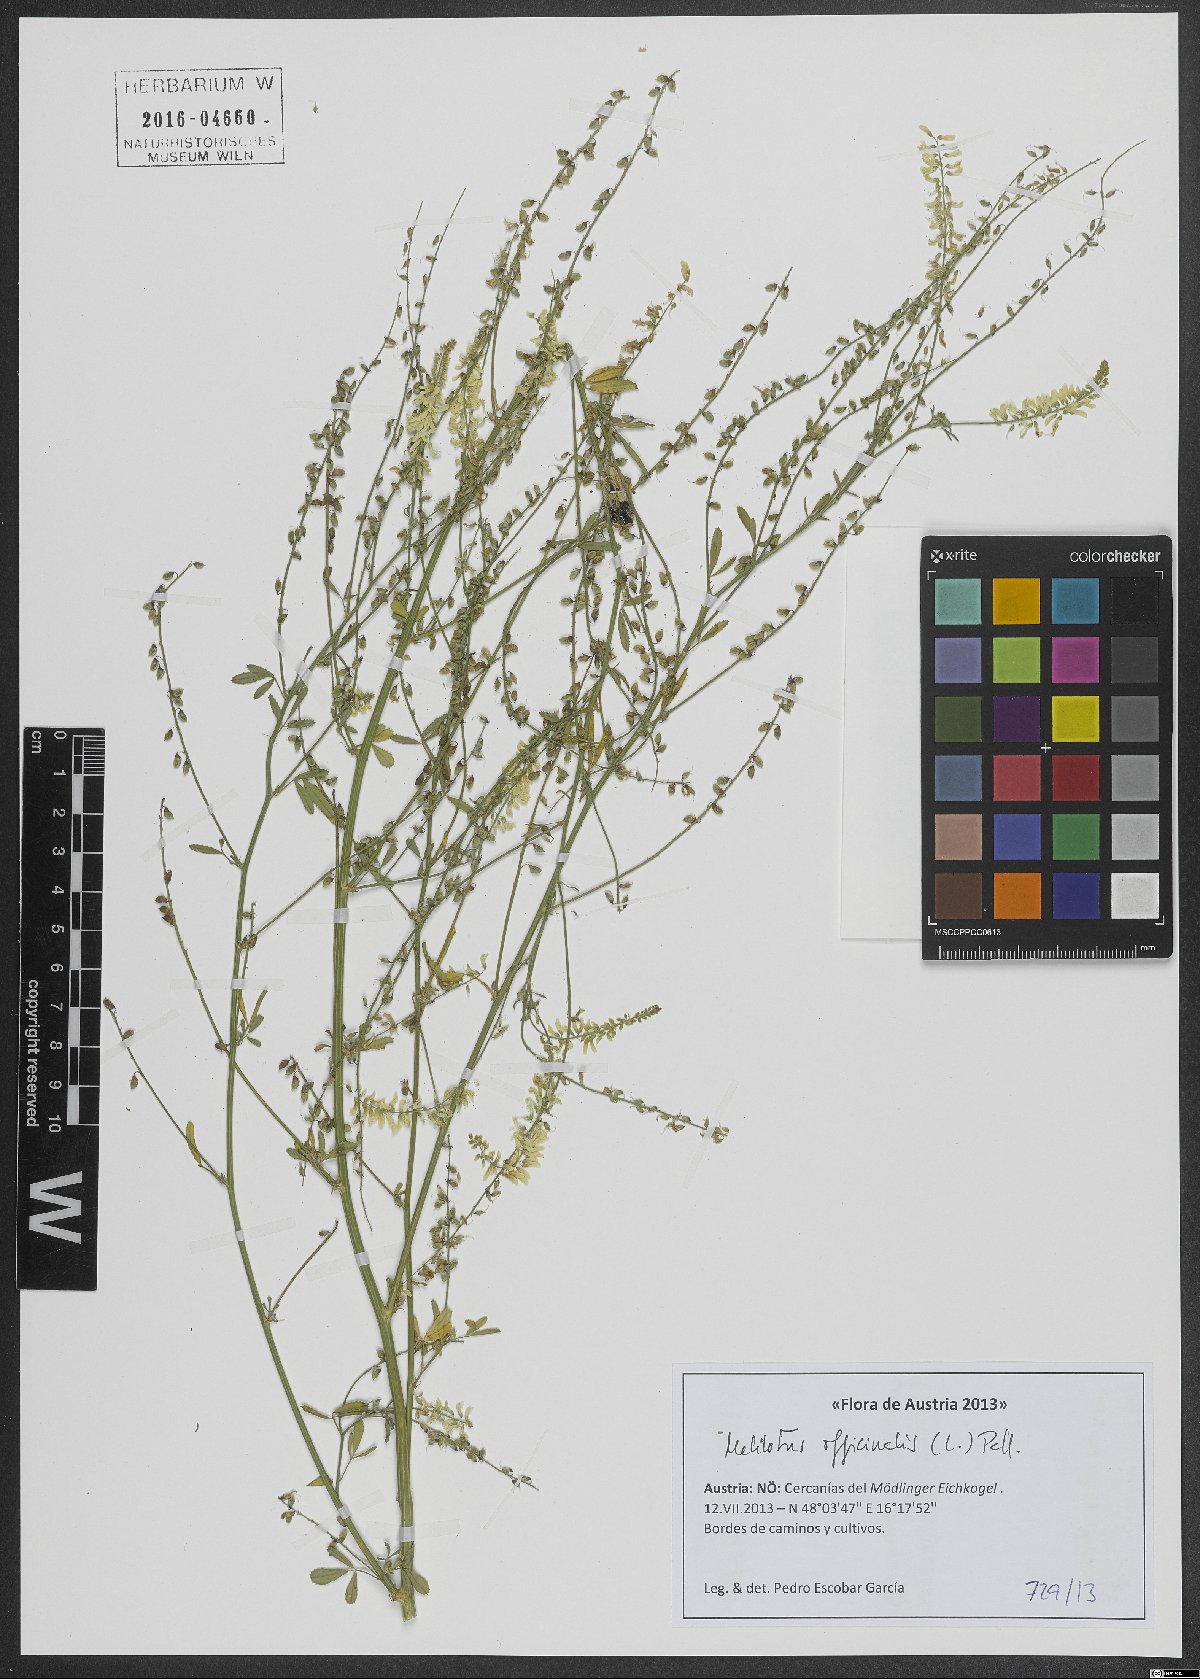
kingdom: Plantae
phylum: Tracheophyta
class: Magnoliopsida
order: Fabales
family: Fabaceae
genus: Melilotus
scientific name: Melilotus officinalis
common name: Sweetclover
